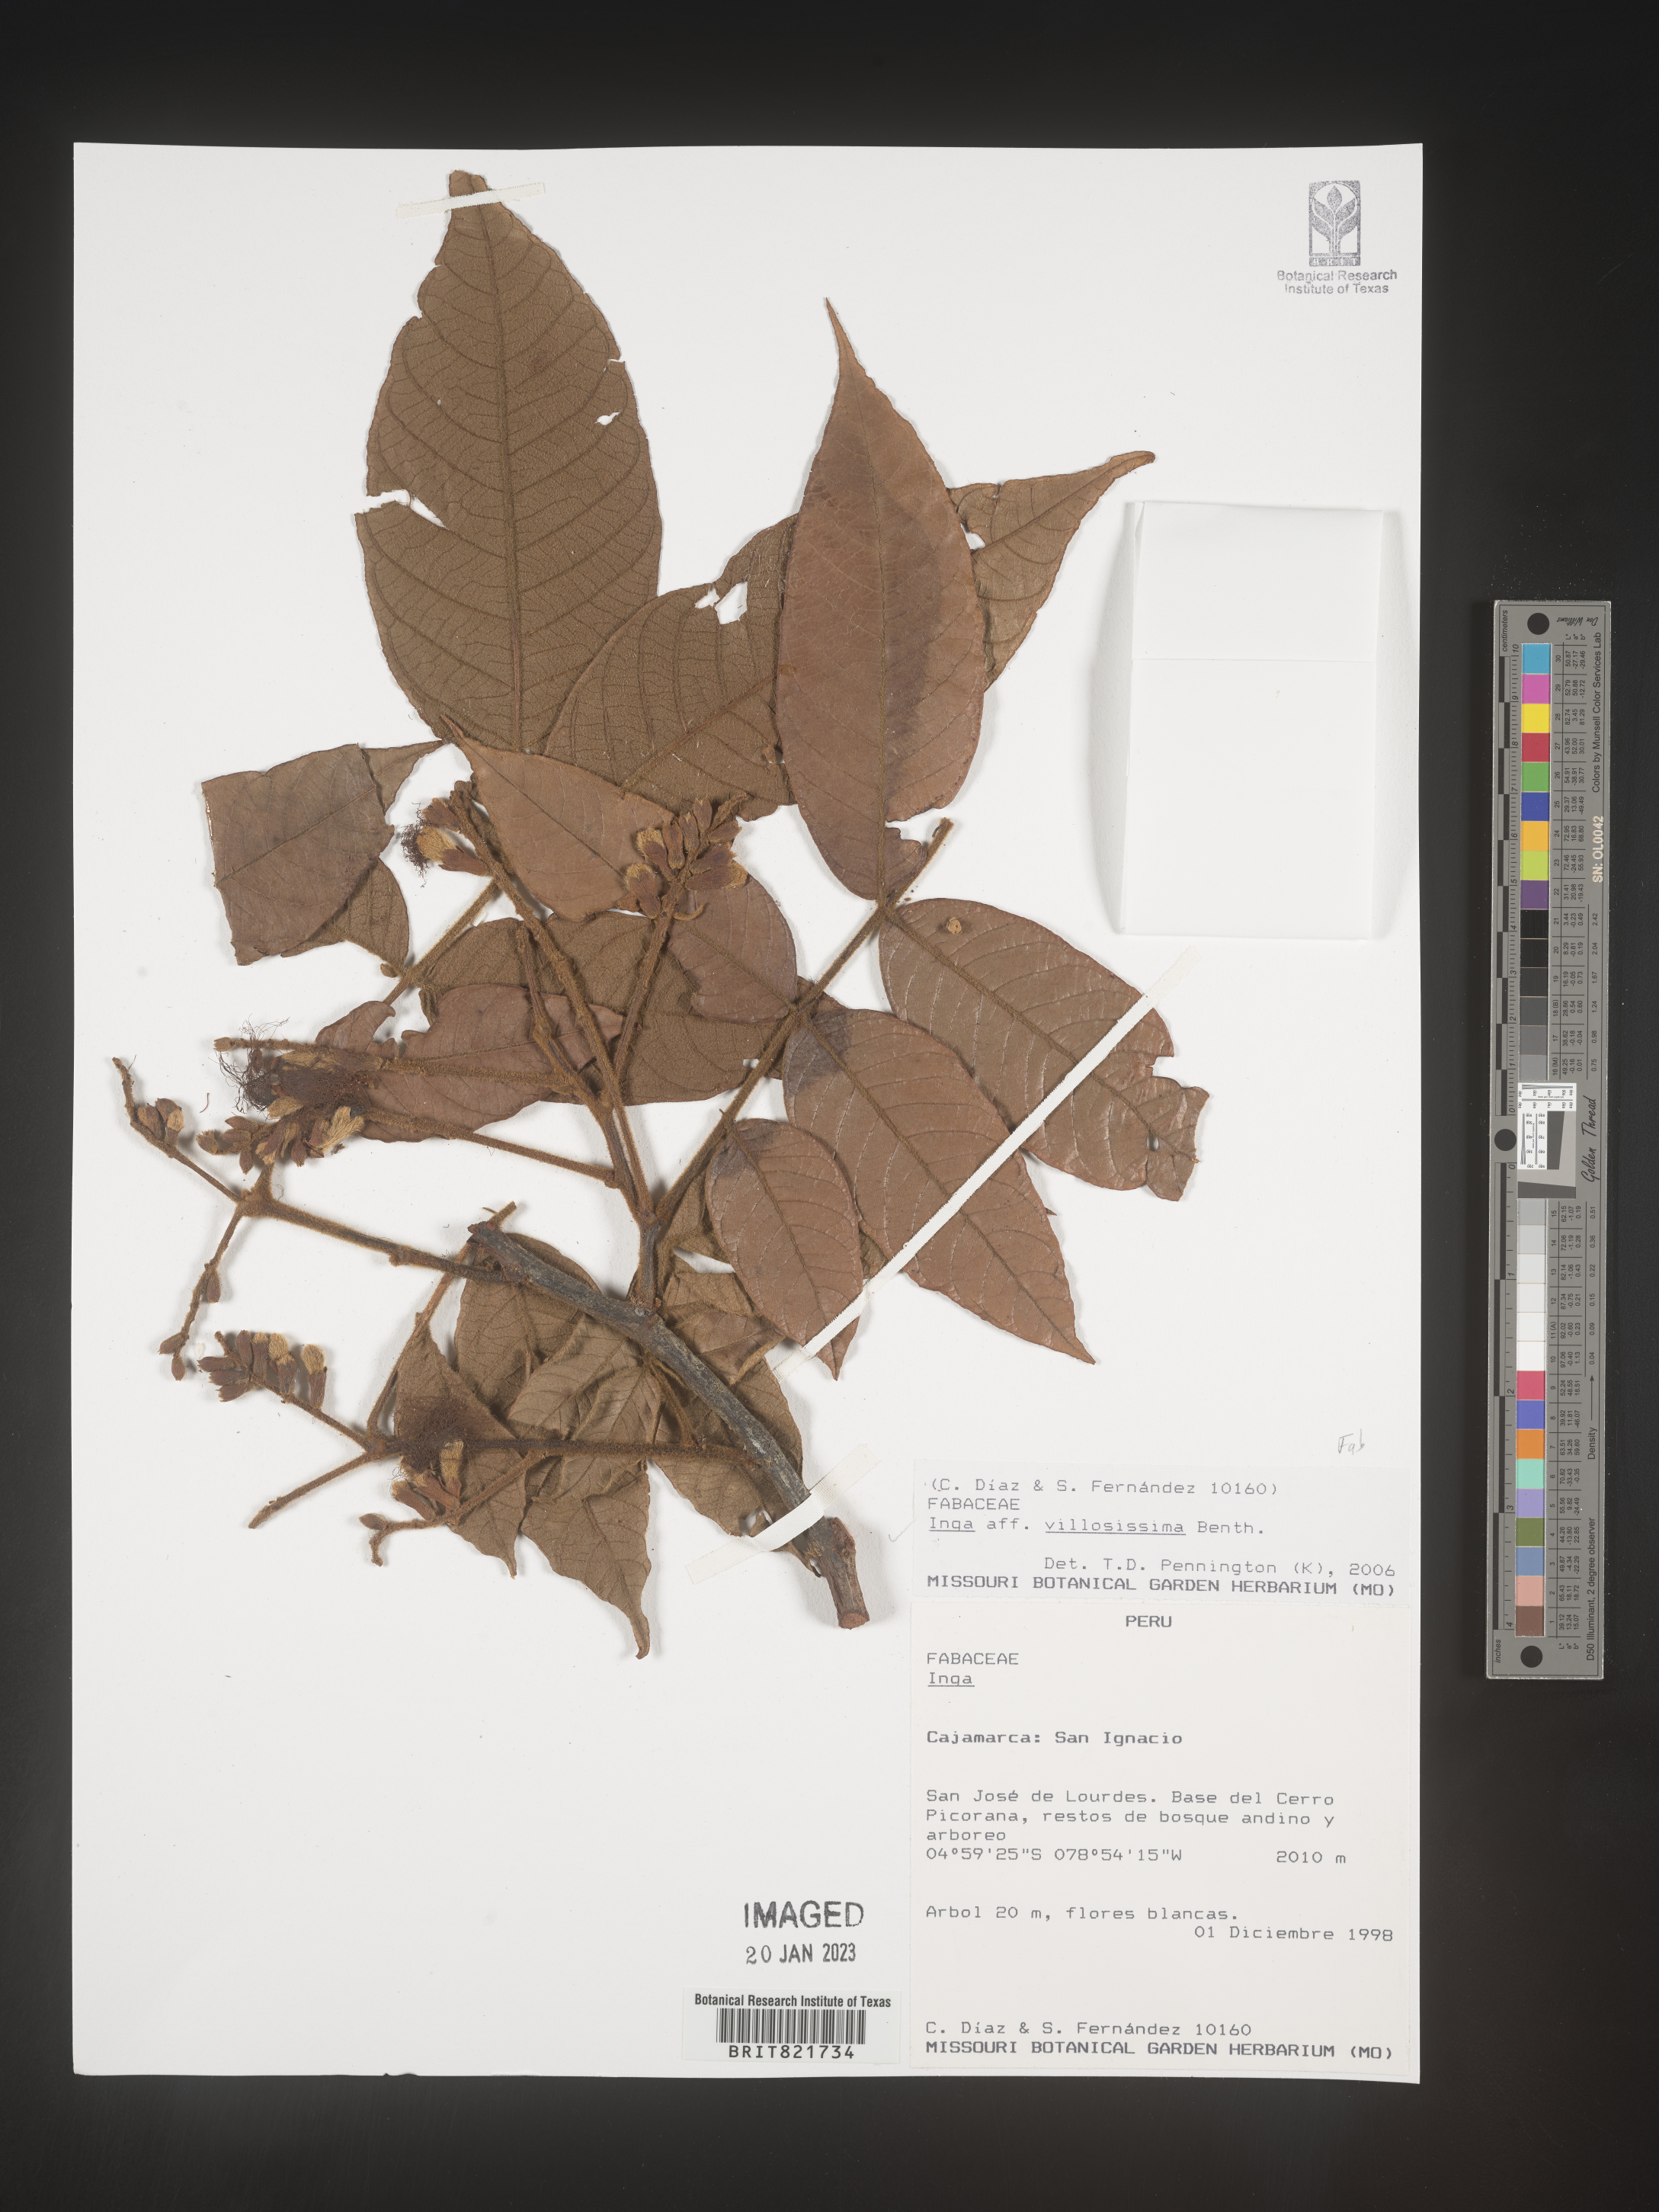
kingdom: Plantae
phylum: Tracheophyta
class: Magnoliopsida
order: Fabales
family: Fabaceae
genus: Inga
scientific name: Inga
